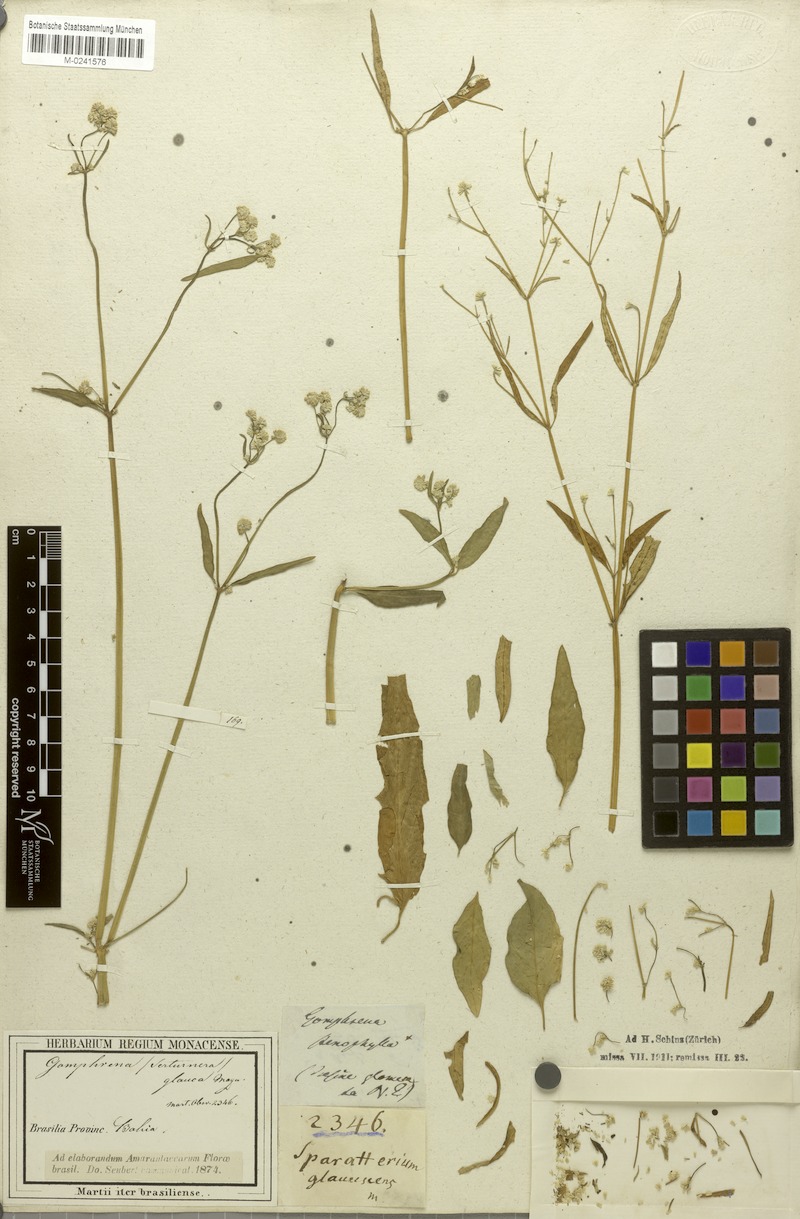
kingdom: Plantae
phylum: Tracheophyta
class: Magnoliopsida
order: Caryophyllales
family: Amaranthaceae
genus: Pfaffia
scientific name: Pfaffia glomerata
